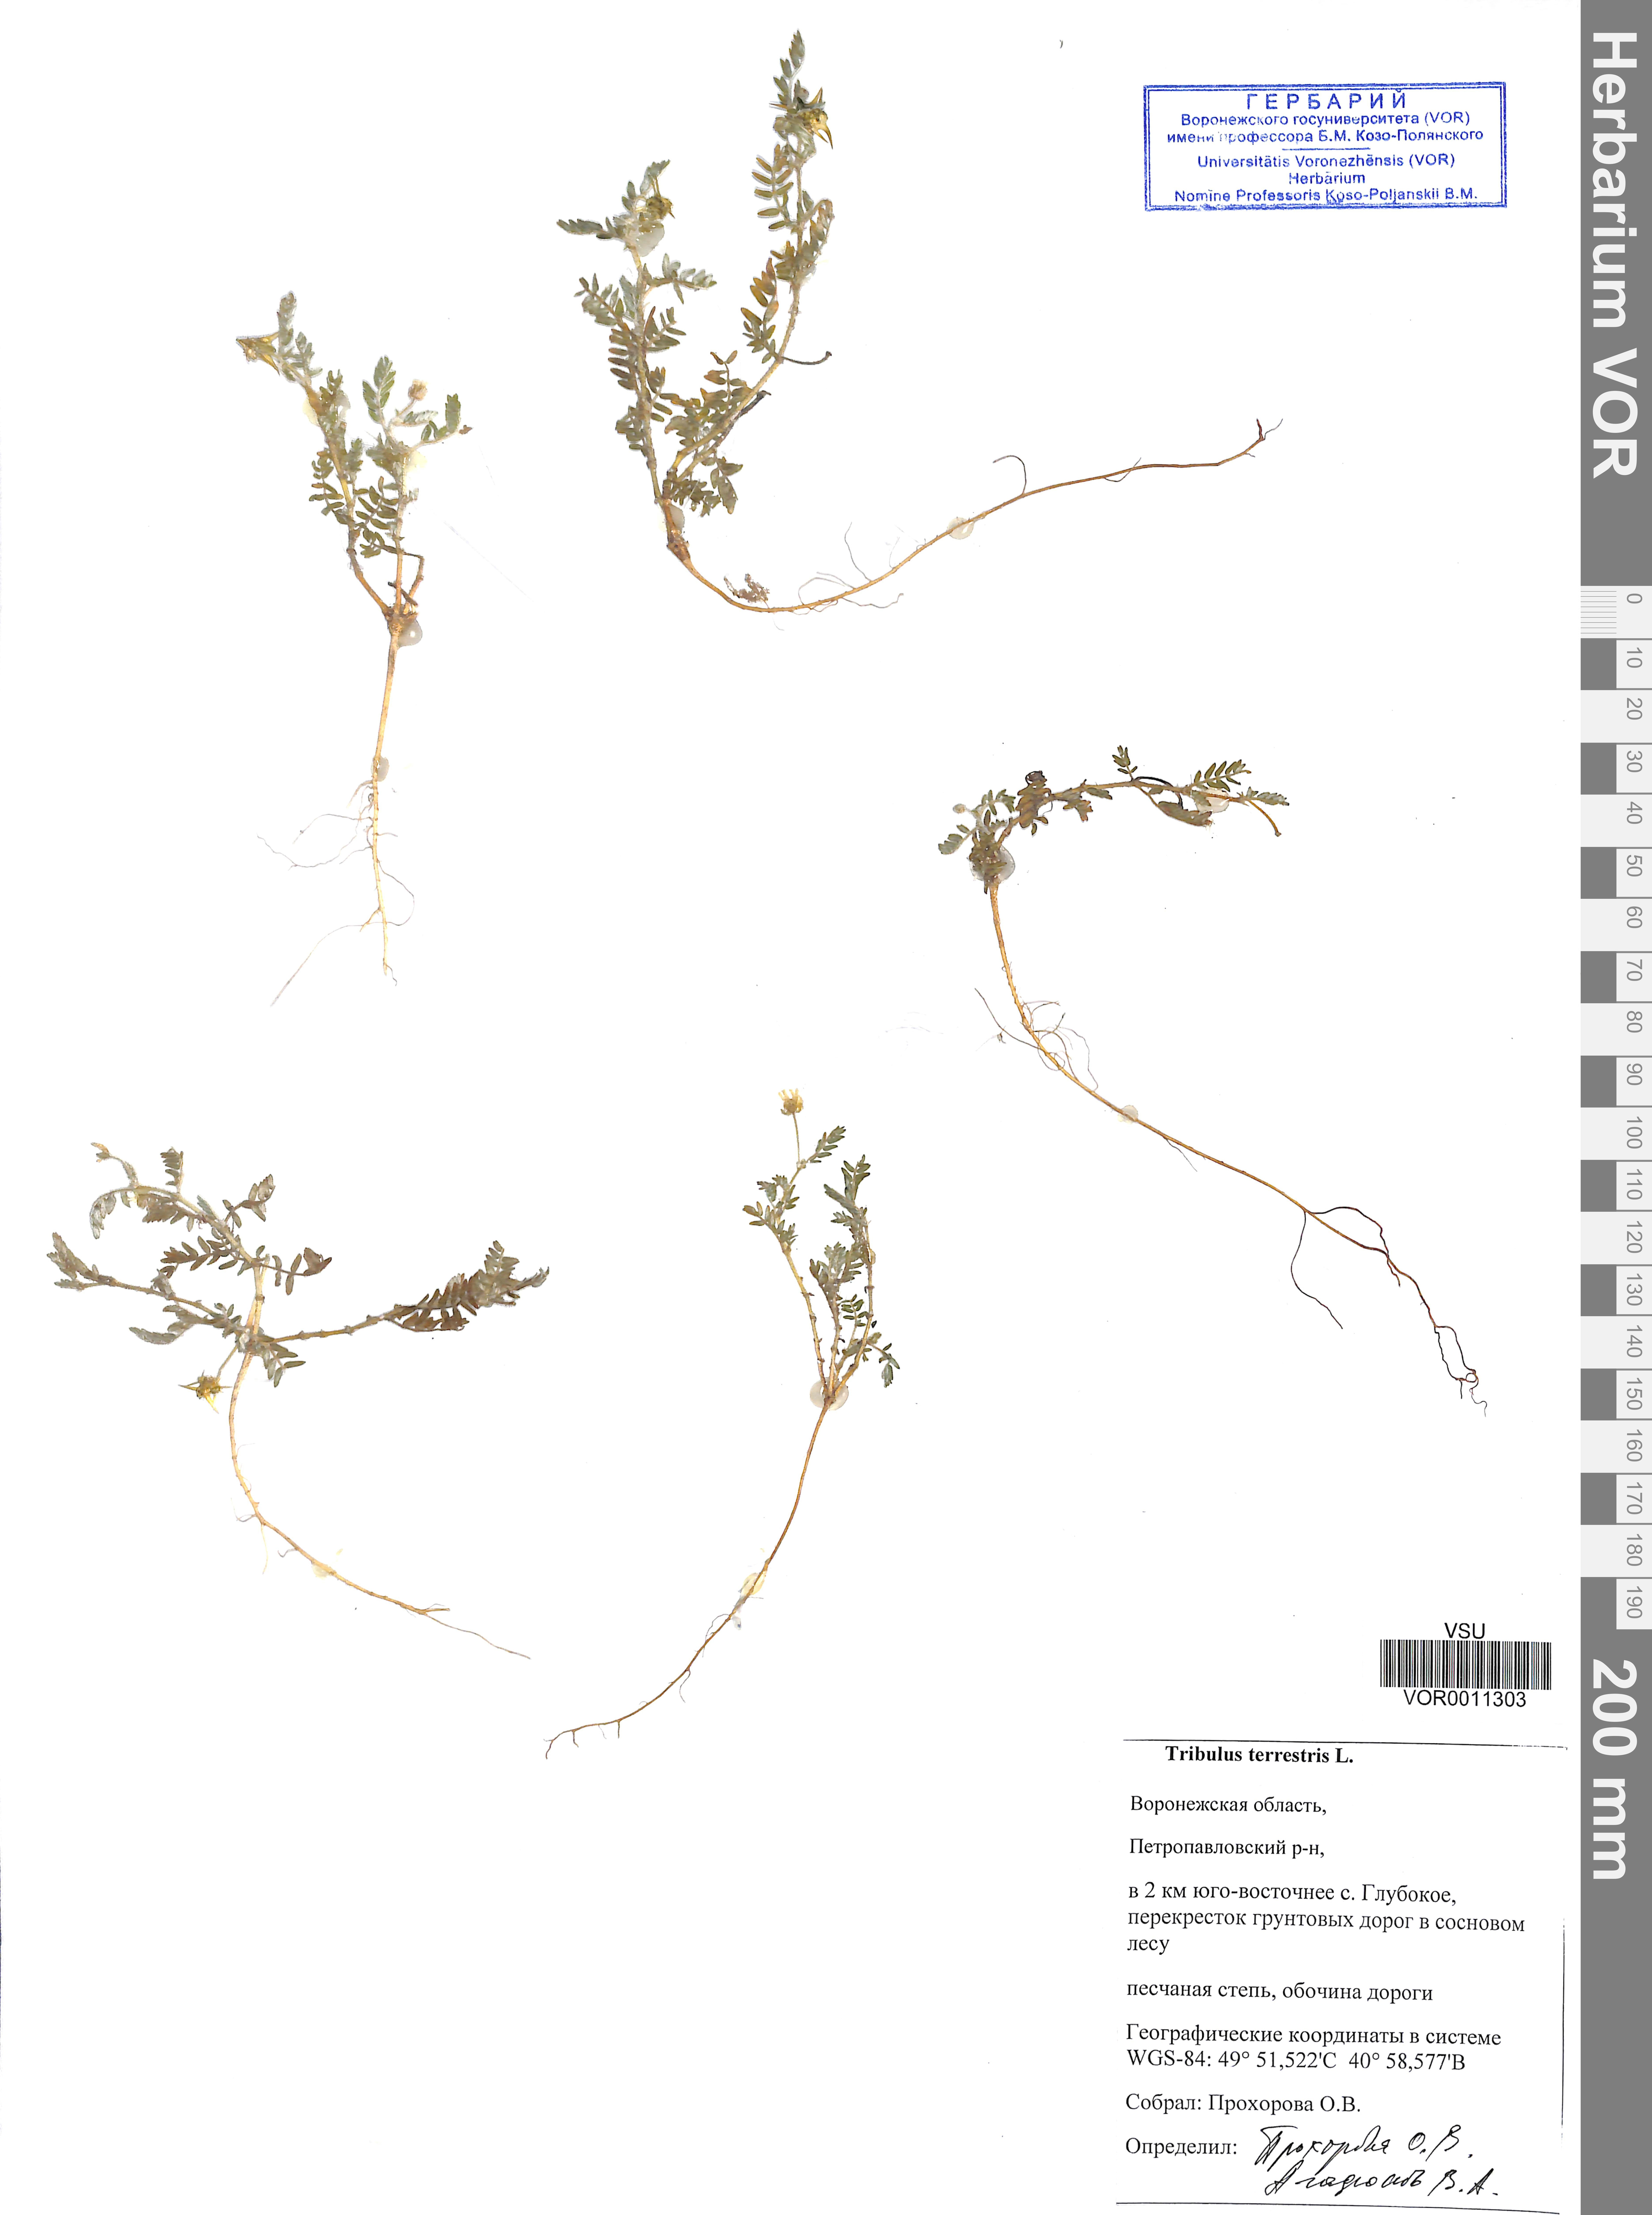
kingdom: Plantae
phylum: Tracheophyta
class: Magnoliopsida
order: Zygophyllales
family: Zygophyllaceae
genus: Tribulus
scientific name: Tribulus terrestris
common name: Puncturevine
